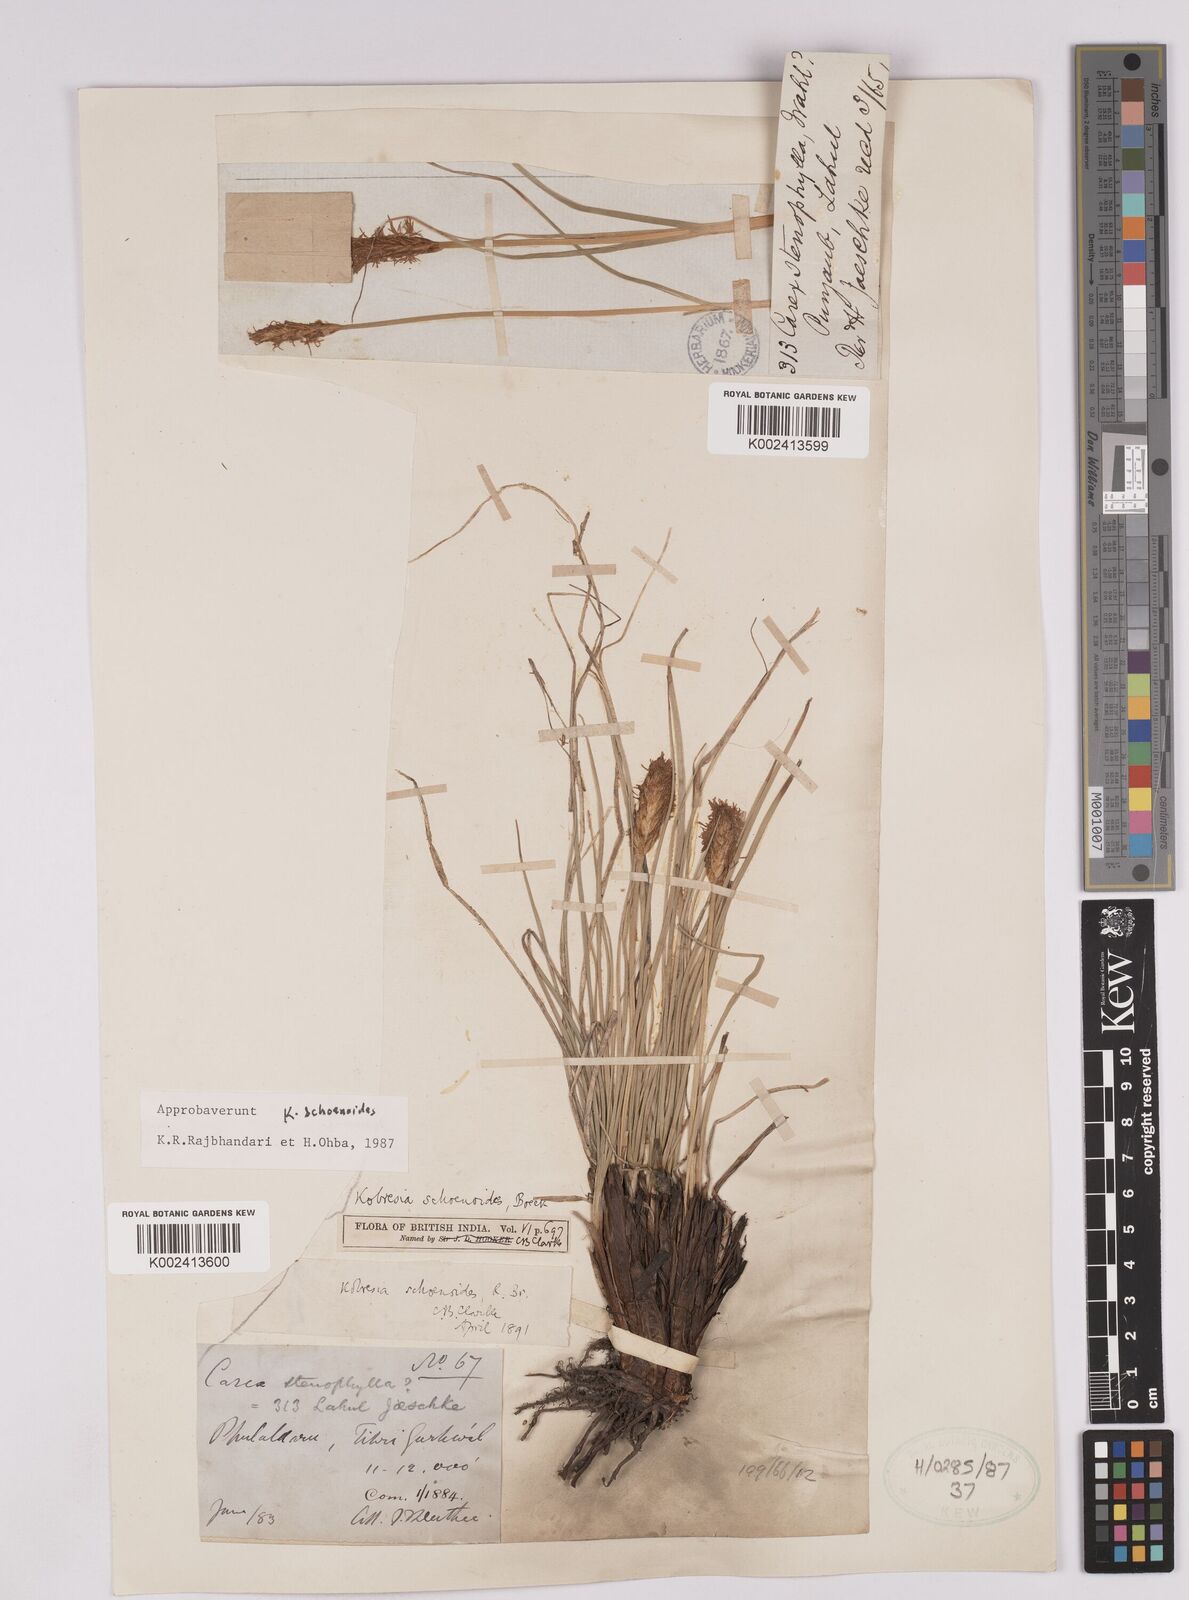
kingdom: Plantae
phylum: Tracheophyta
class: Liliopsida
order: Poales
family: Cyperaceae
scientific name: Cyperaceae
